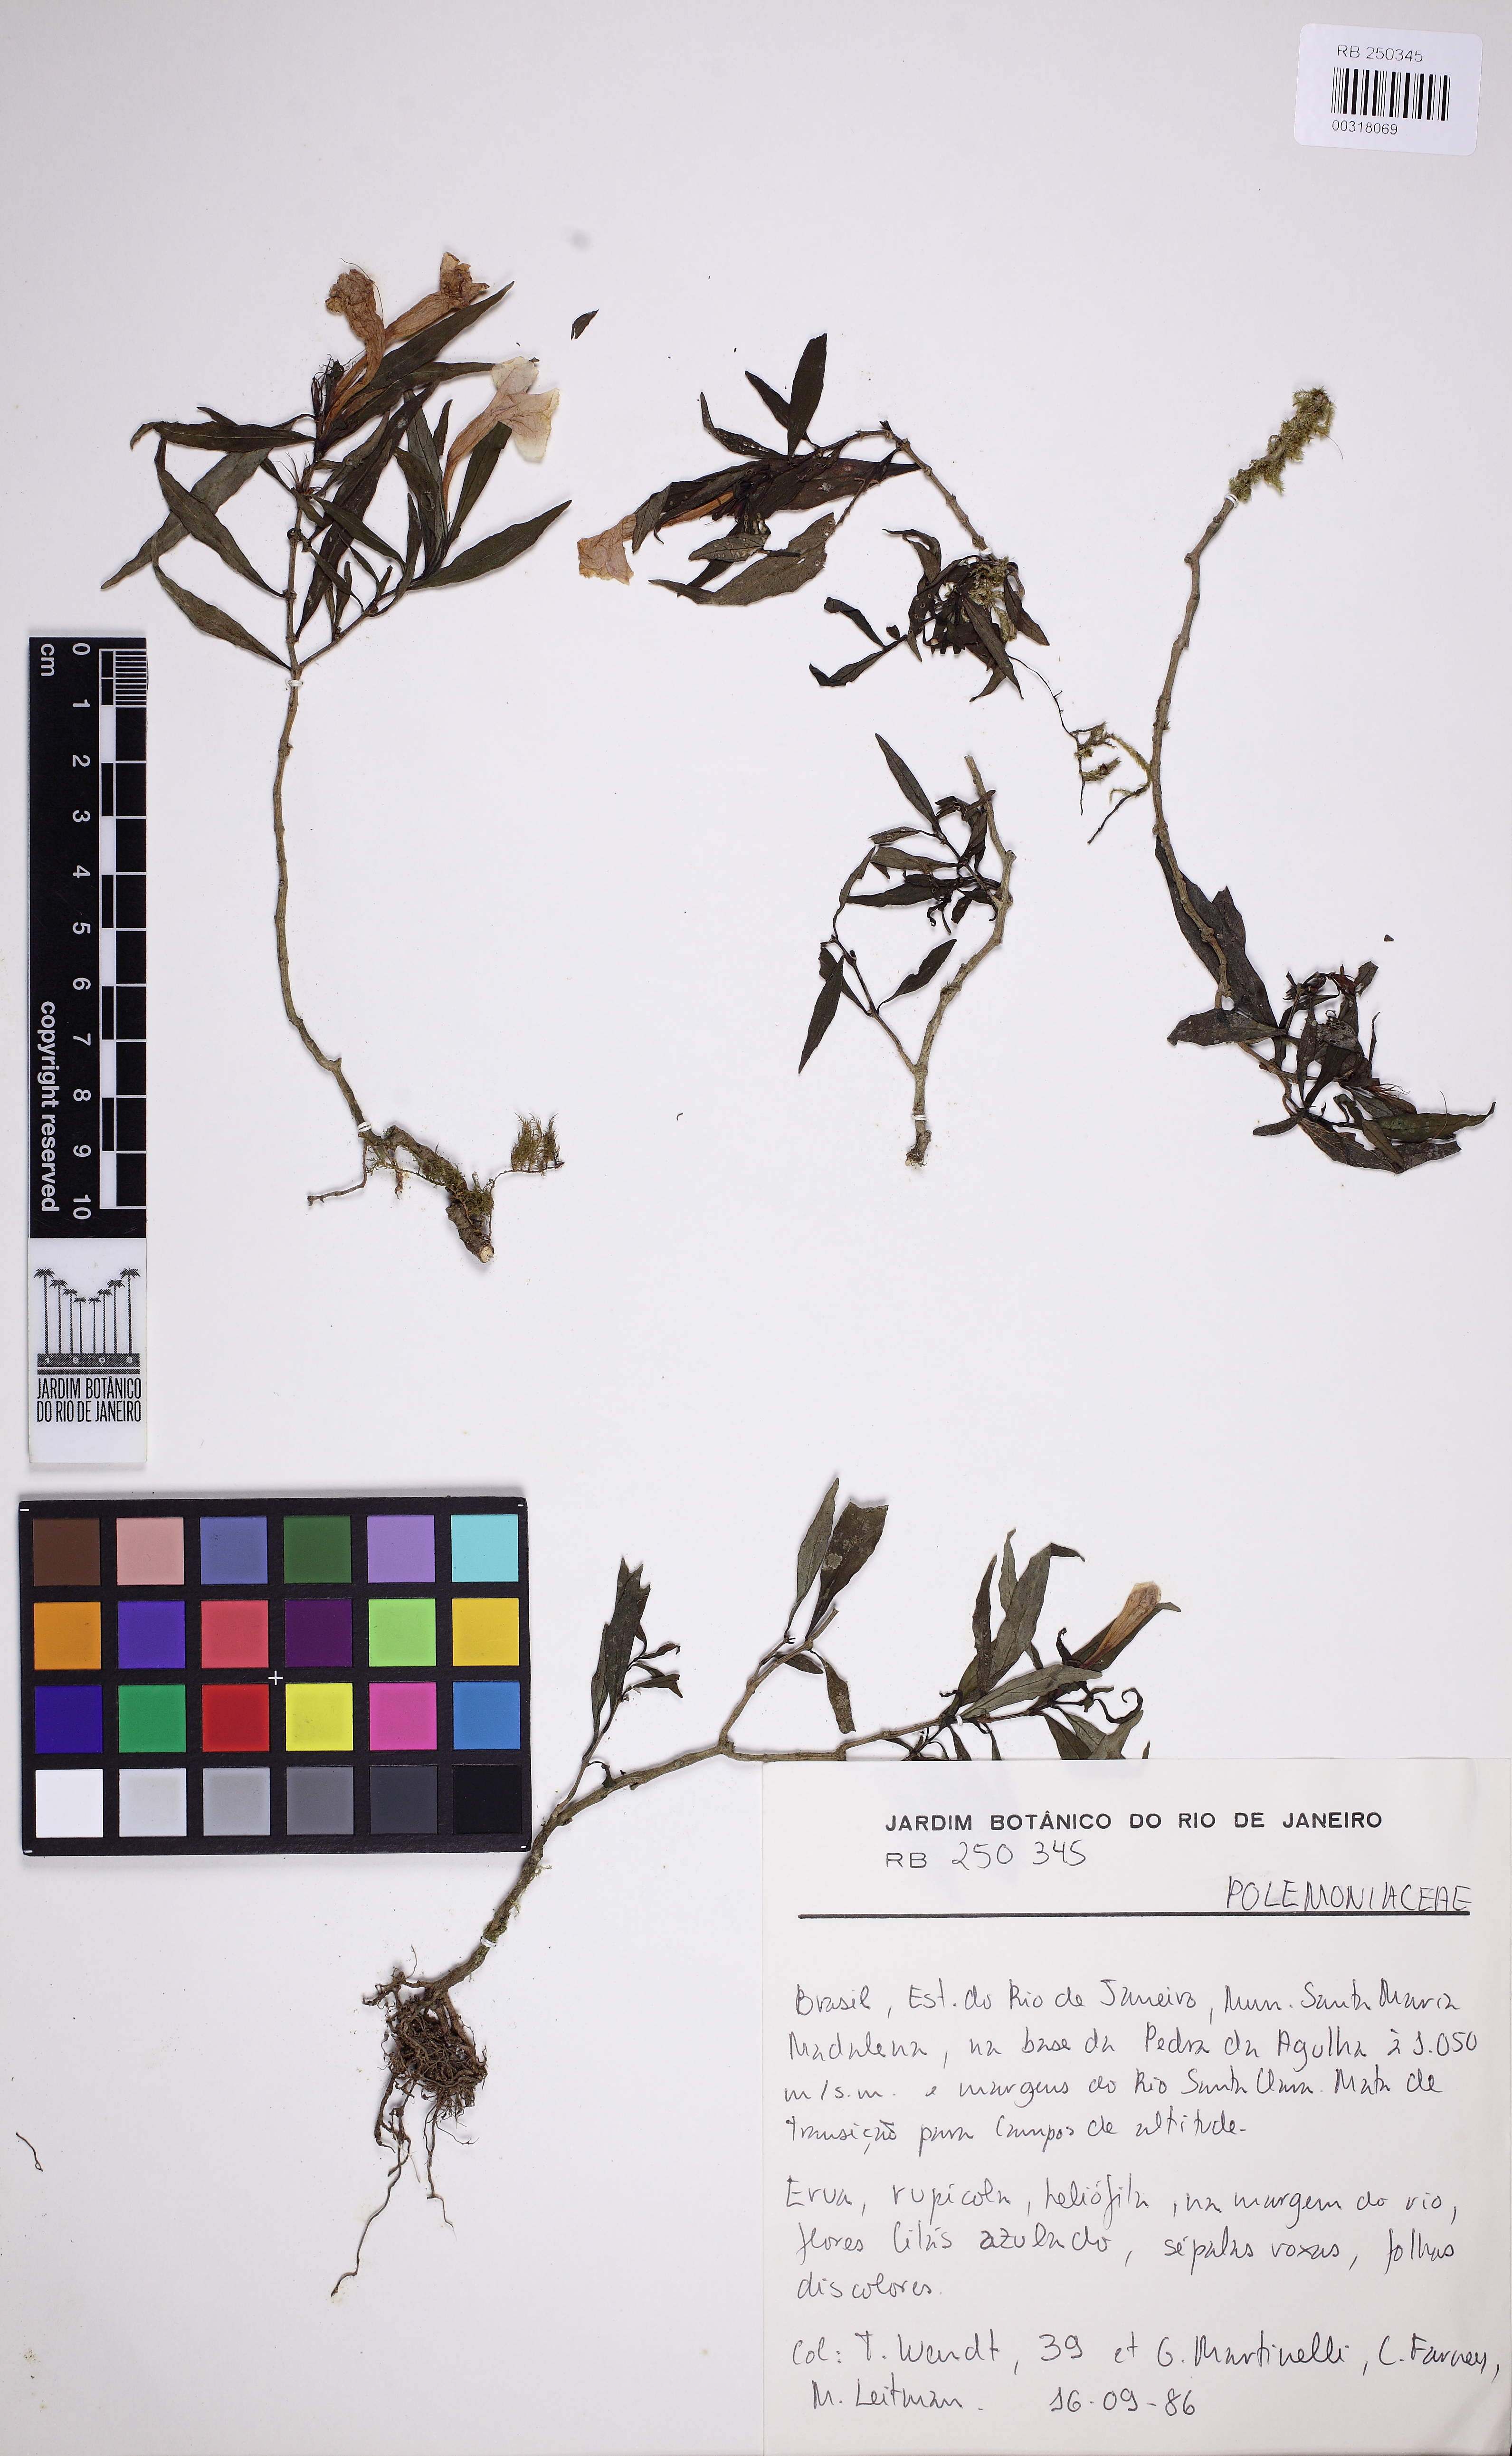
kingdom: Plantae
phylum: Tracheophyta
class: Magnoliopsida
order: Ericales
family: Polemoniaceae
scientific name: Polemoniaceae
